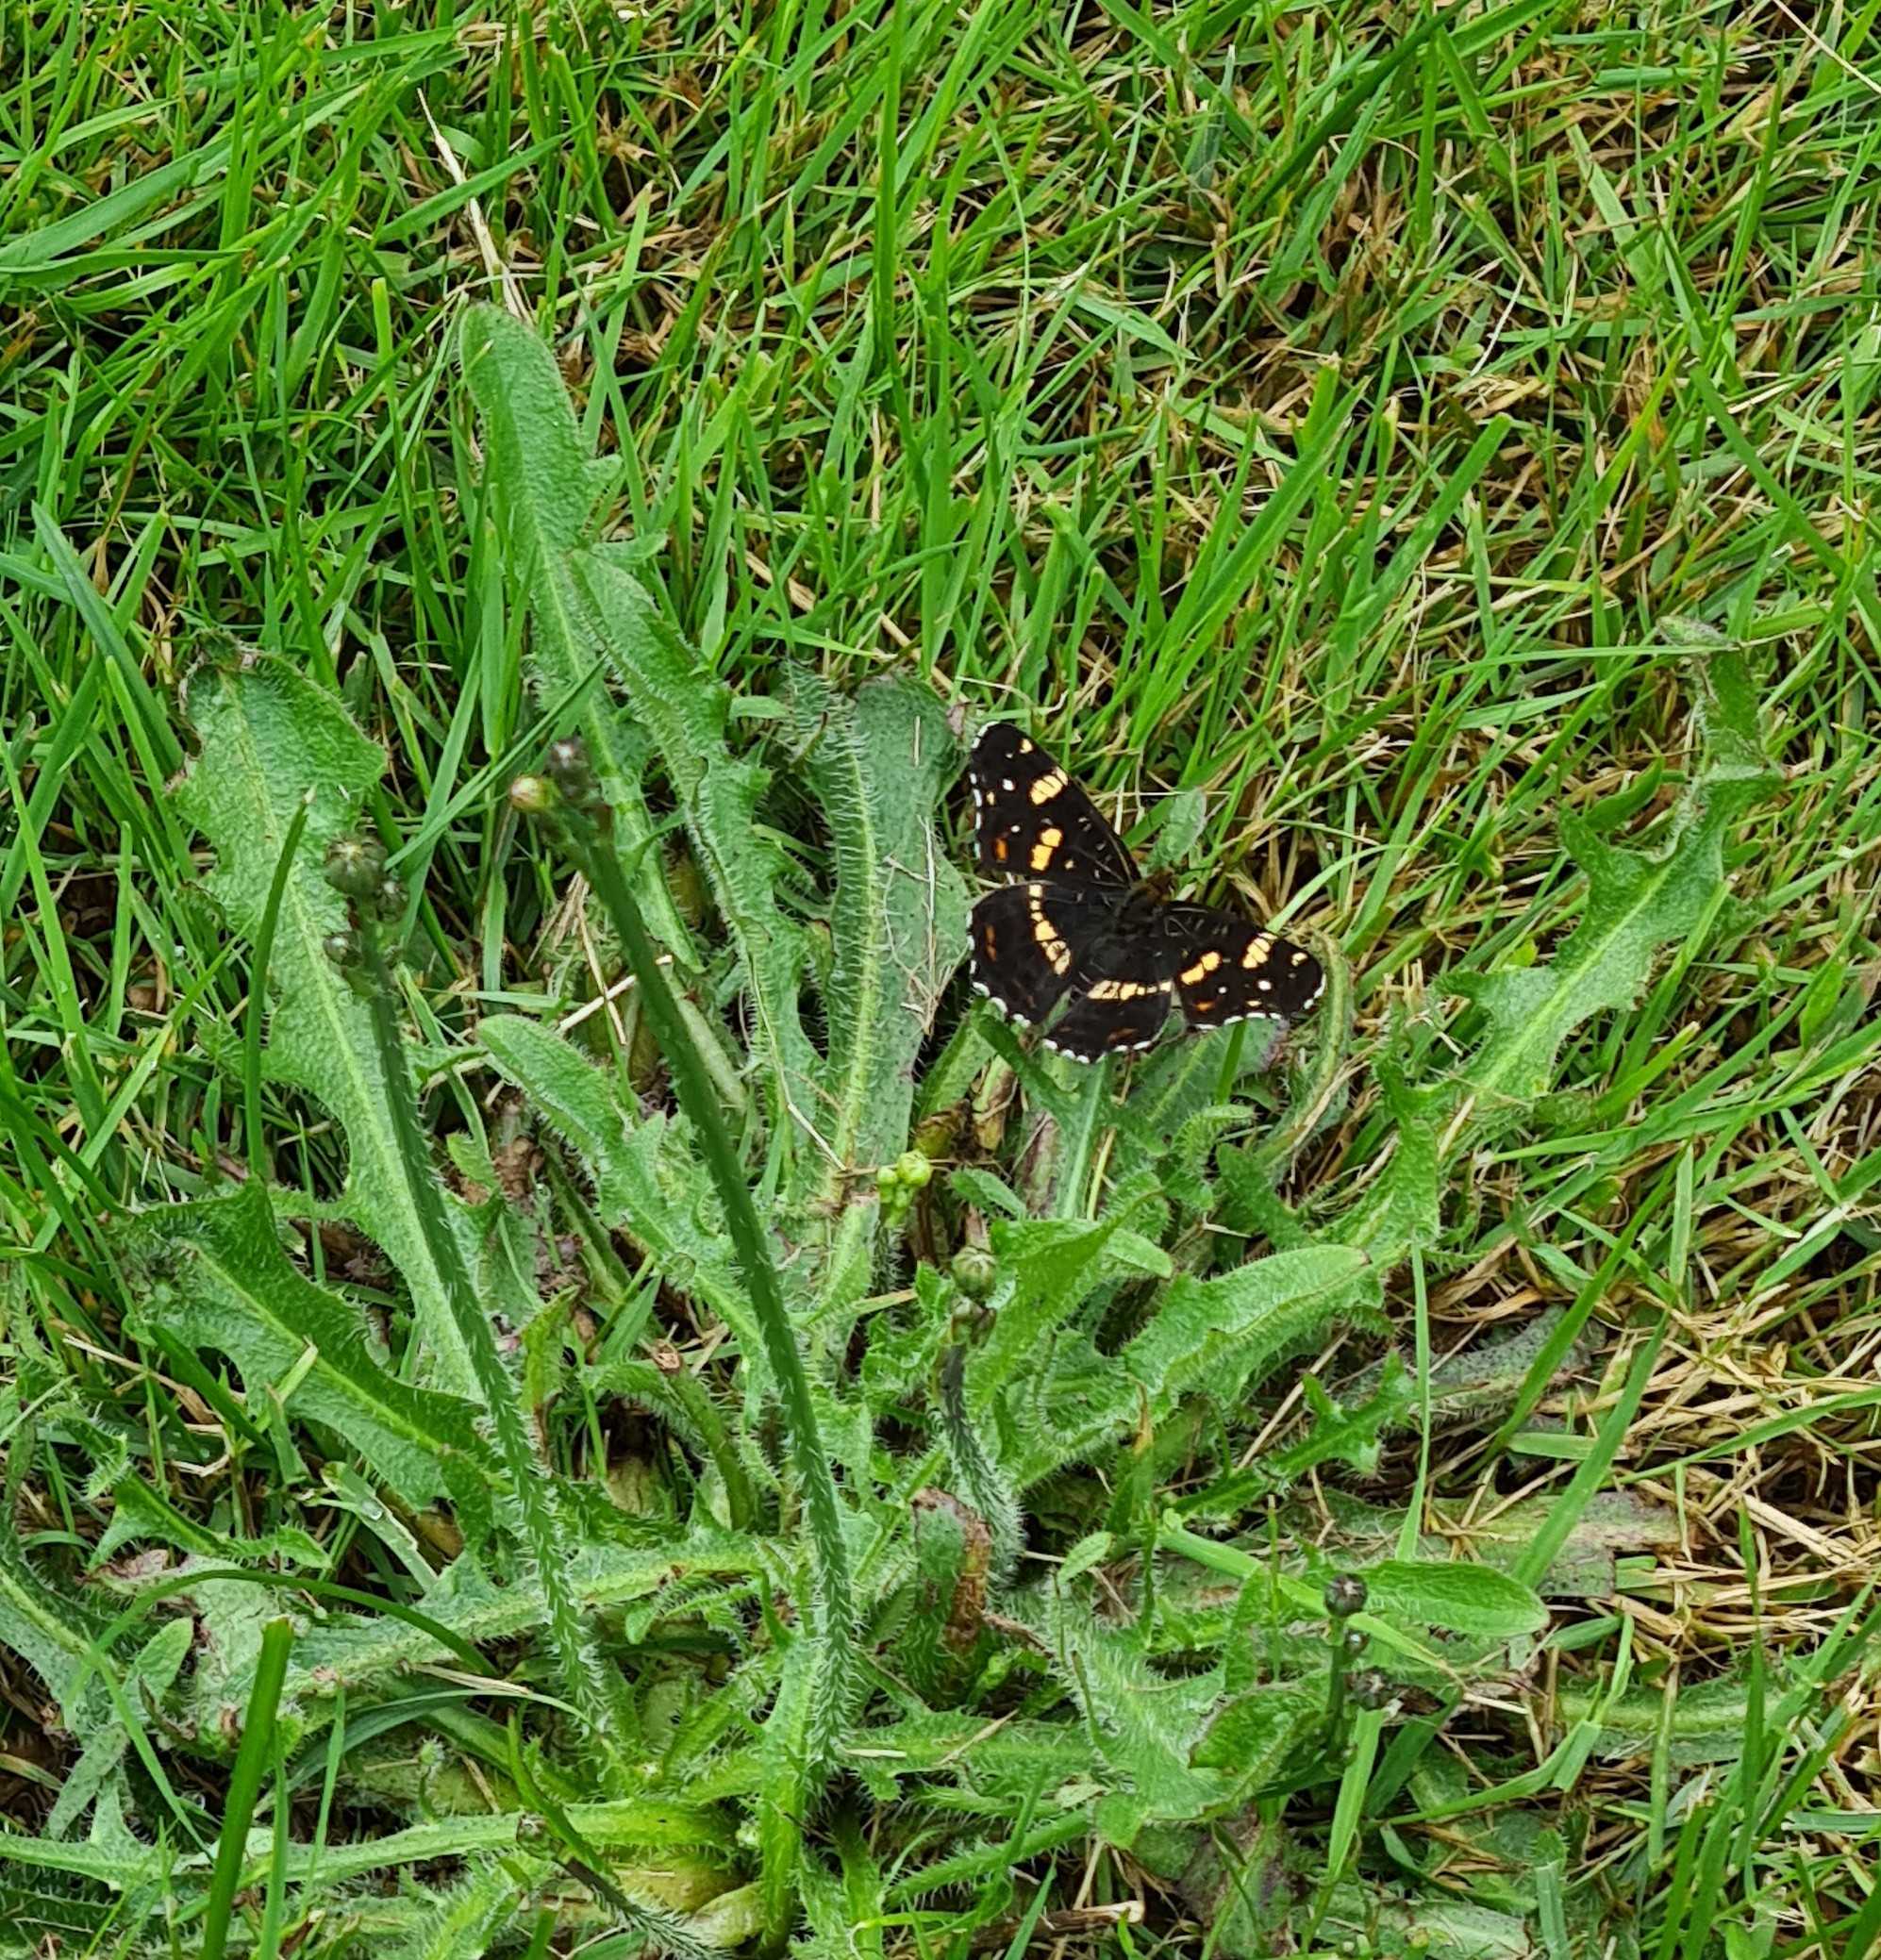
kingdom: Animalia
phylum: Arthropoda
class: Insecta
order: Lepidoptera
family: Nymphalidae
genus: Araschnia
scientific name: Araschnia levana
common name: Nældesommerfugl
